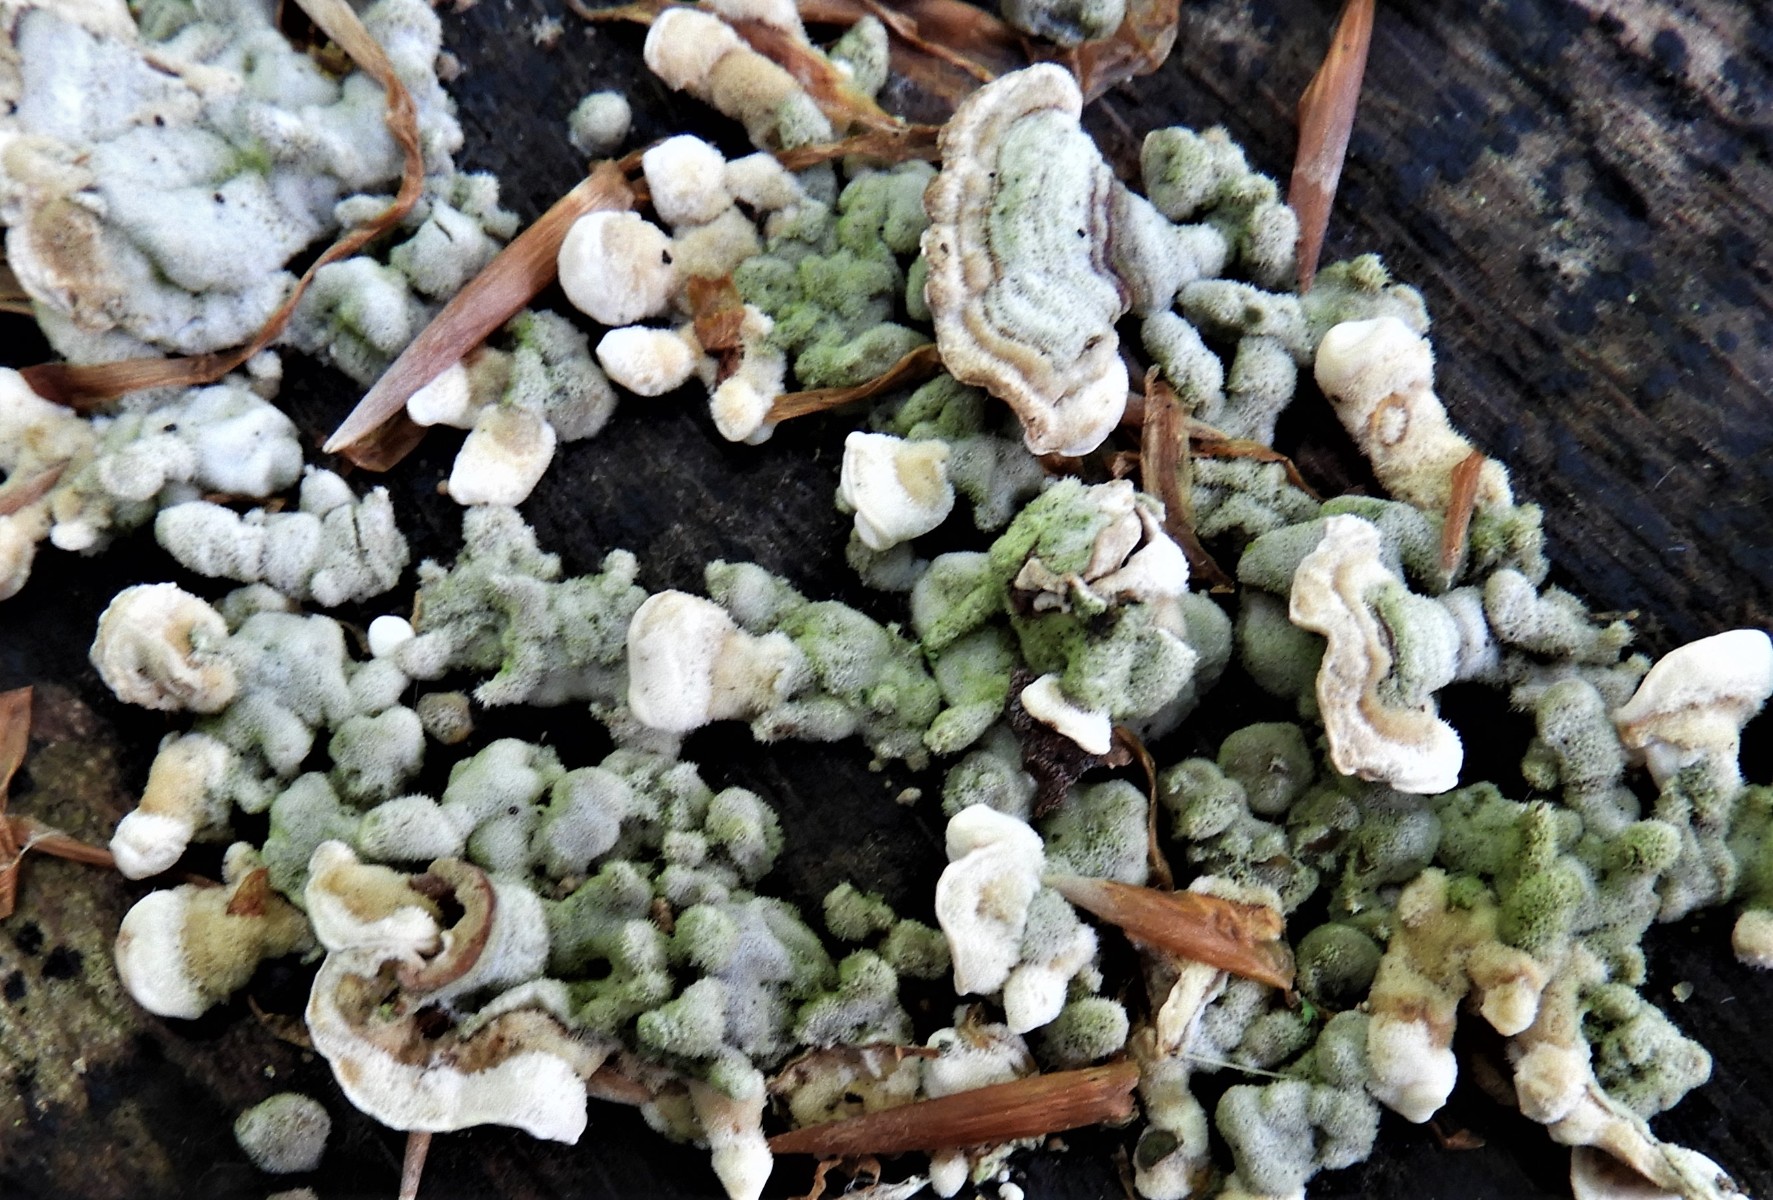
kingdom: Fungi
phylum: Basidiomycota
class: Agaricomycetes
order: Russulales
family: Stereaceae
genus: Stereum
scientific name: Stereum hirsutum
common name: håret lædersvamp
